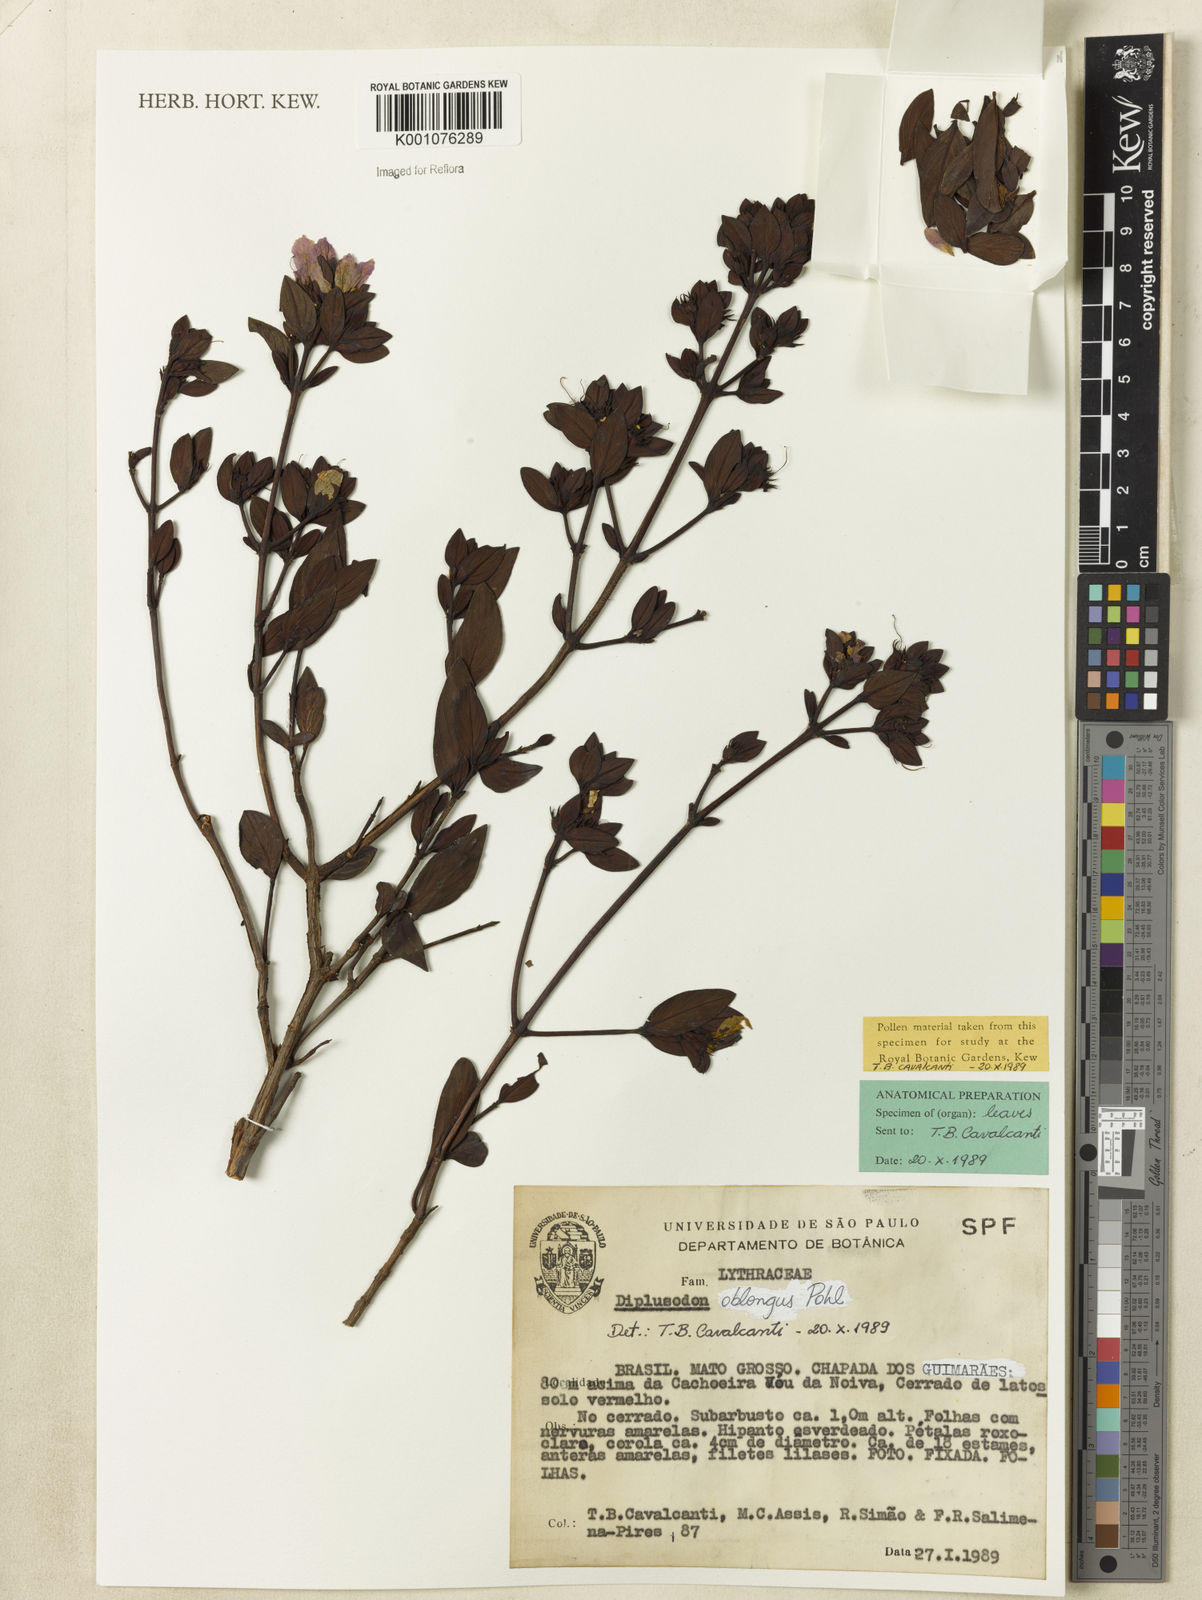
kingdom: Plantae
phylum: Tracheophyta
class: Magnoliopsida
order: Myrtales
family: Lythraceae
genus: Diplusodon
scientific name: Diplusodon oblongus
